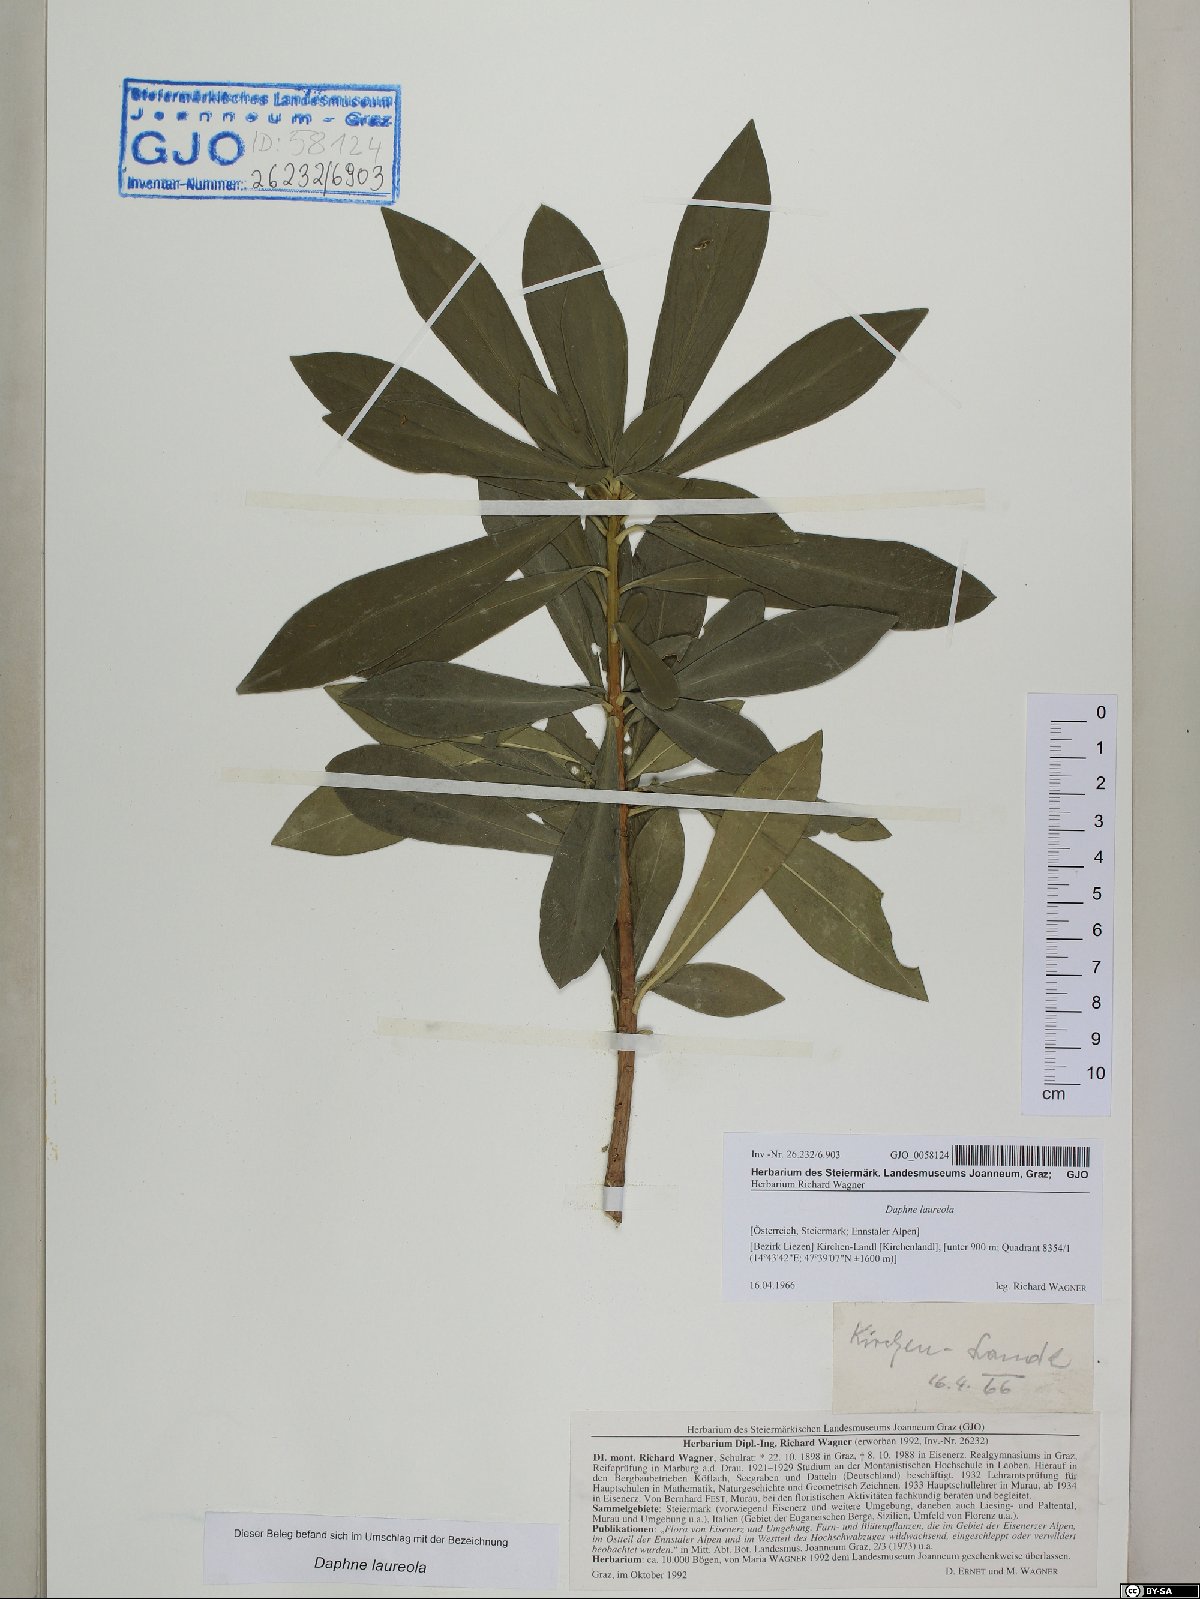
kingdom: Plantae
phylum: Tracheophyta
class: Magnoliopsida
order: Malvales
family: Thymelaeaceae
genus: Daphne
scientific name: Daphne laureola
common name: Spurge-laurel
